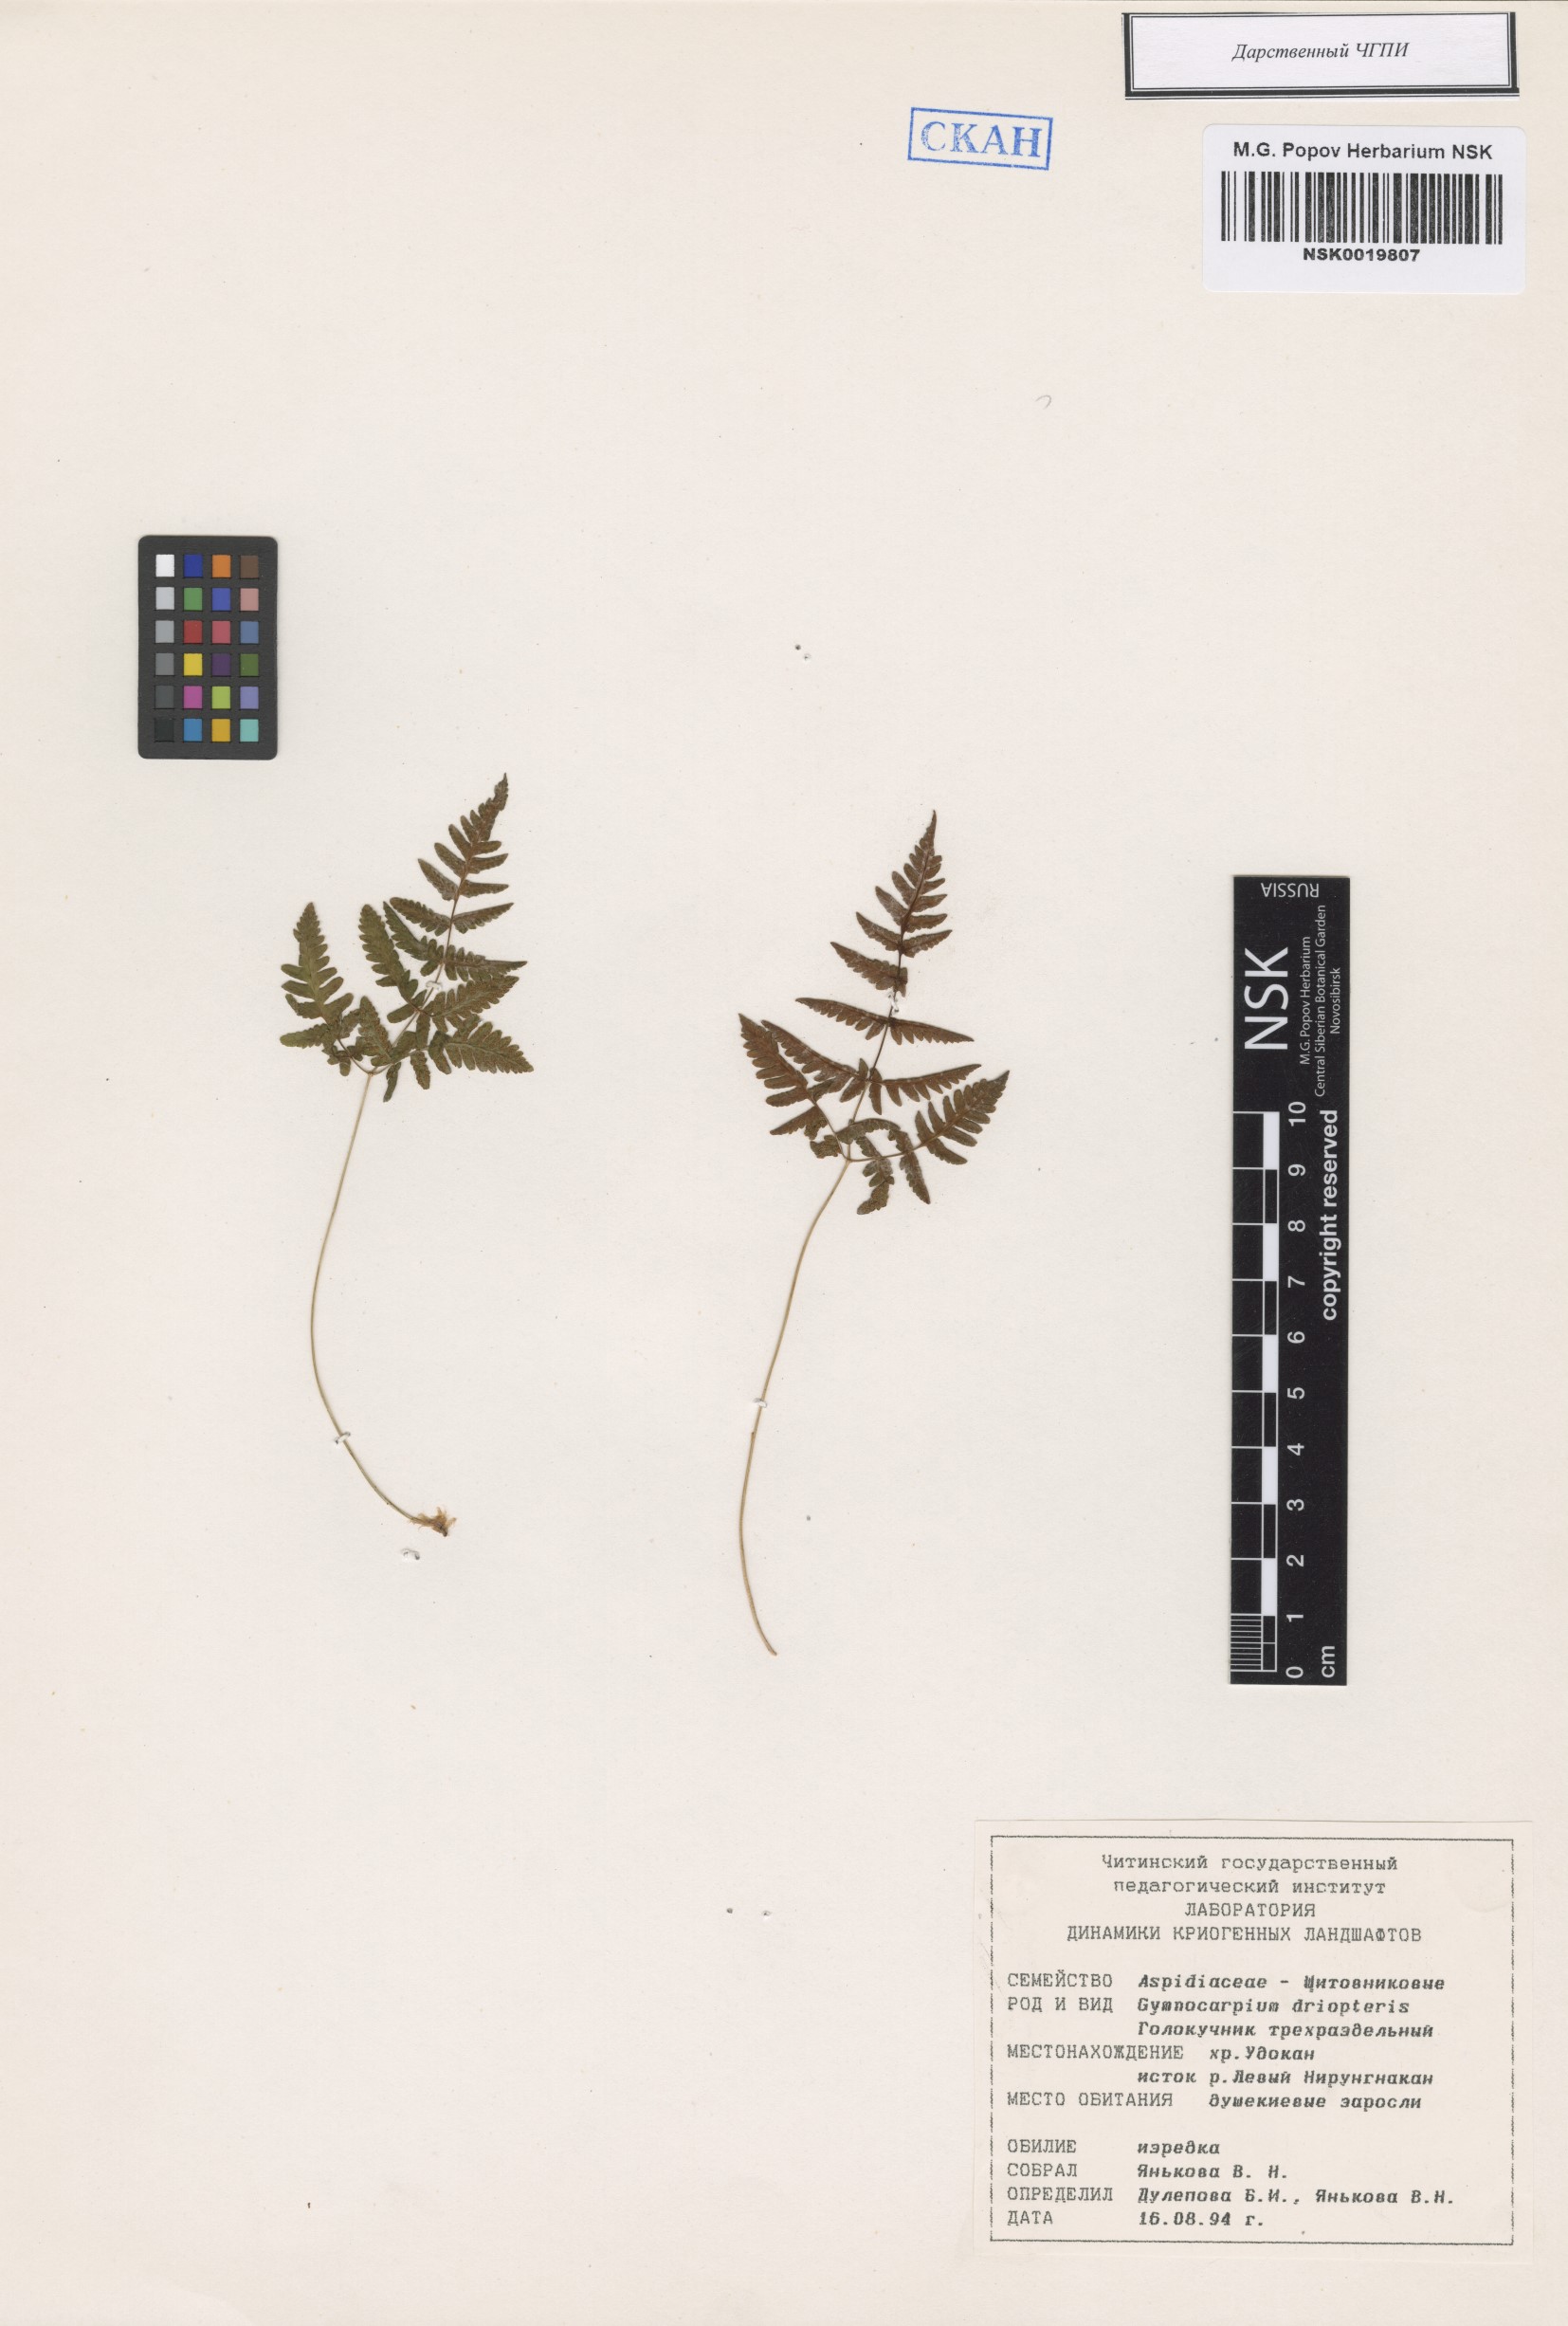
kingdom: Plantae
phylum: Tracheophyta
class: Polypodiopsida
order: Polypodiales
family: Cystopteridaceae
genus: Gymnocarpium
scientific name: Gymnocarpium dryopteris
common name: Oak fern
